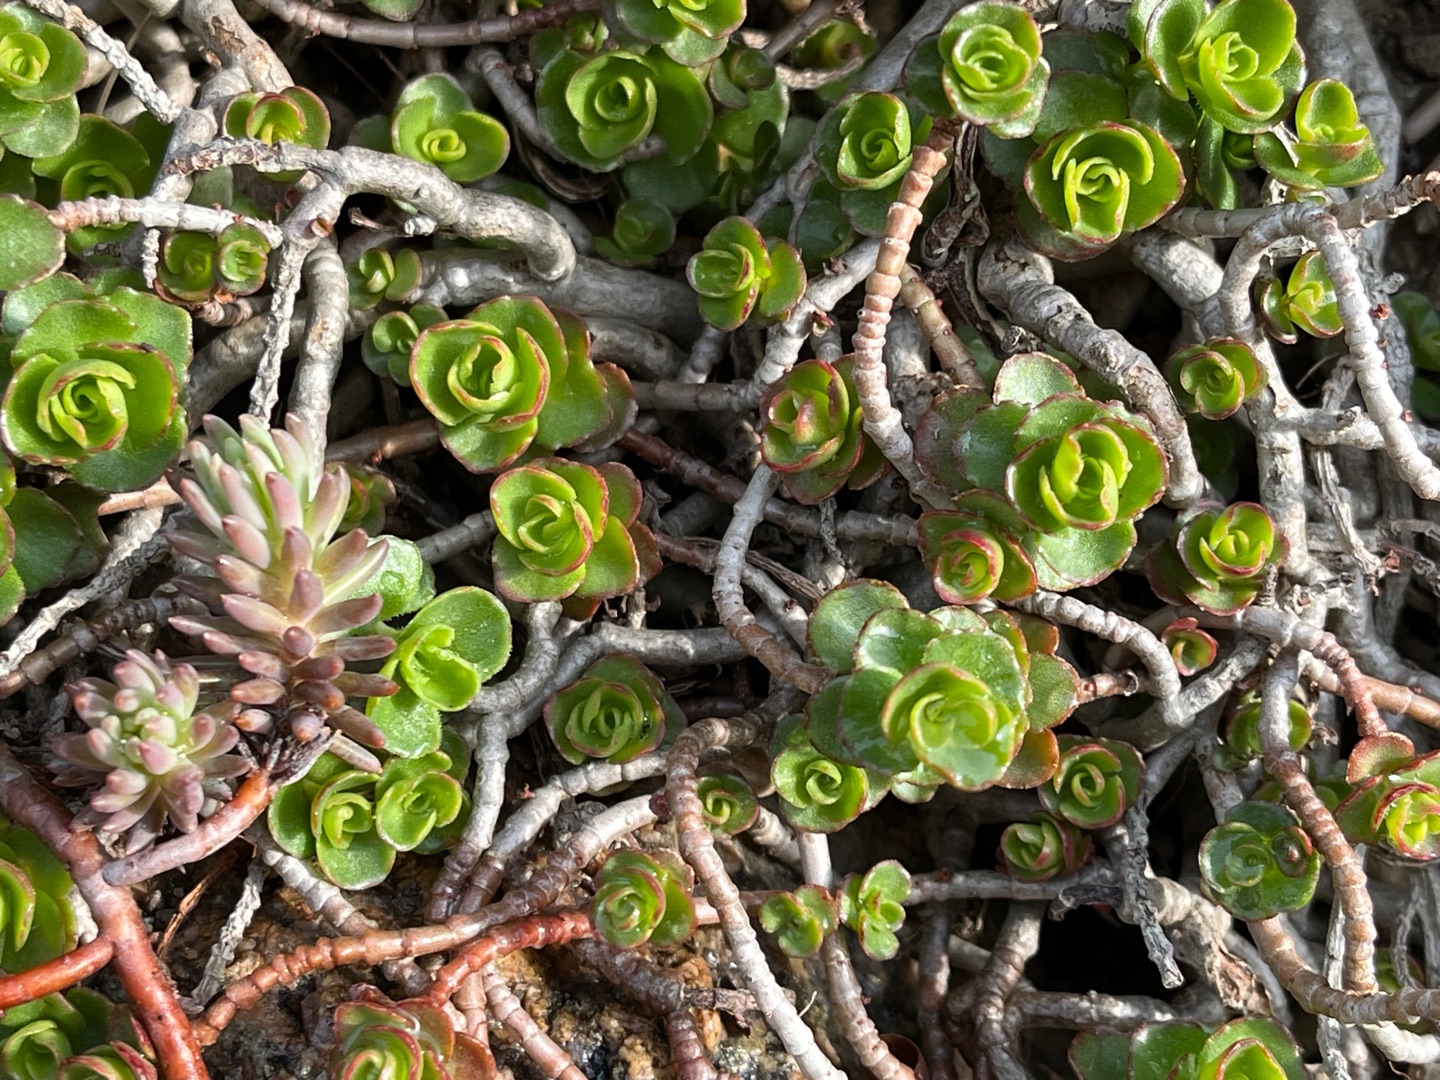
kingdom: Plantae
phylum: Tracheophyta
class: Magnoliopsida
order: Saxifragales
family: Crassulaceae
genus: Phedimus
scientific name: Phedimus spurius
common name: Rød stenurt
